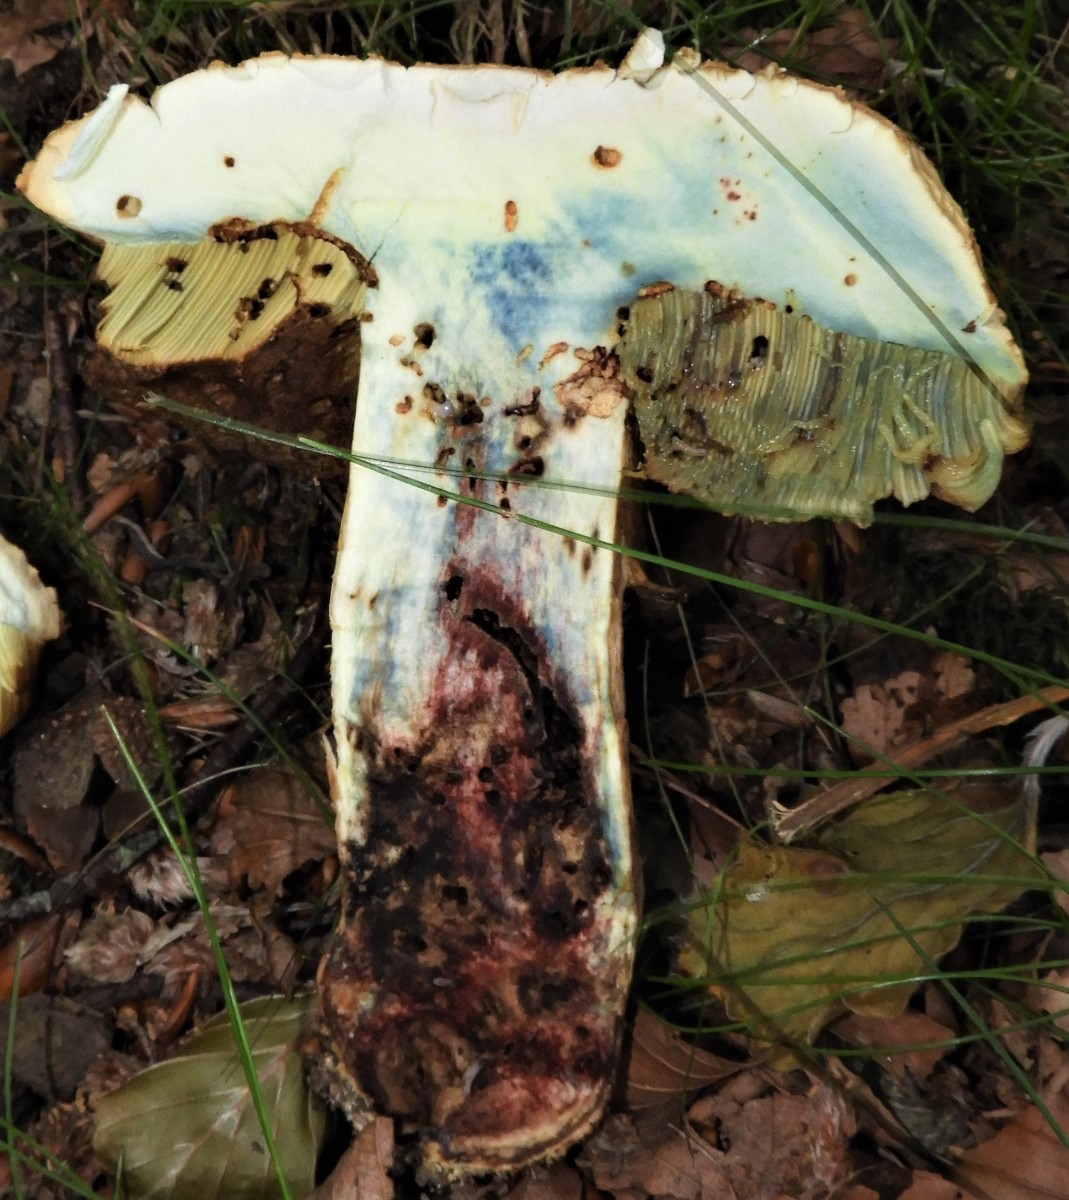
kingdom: Fungi
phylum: Basidiomycota
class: Agaricomycetes
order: Boletales
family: Boletaceae
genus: Suillellus
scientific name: Suillellus luridus
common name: netstokket indigorørhat
